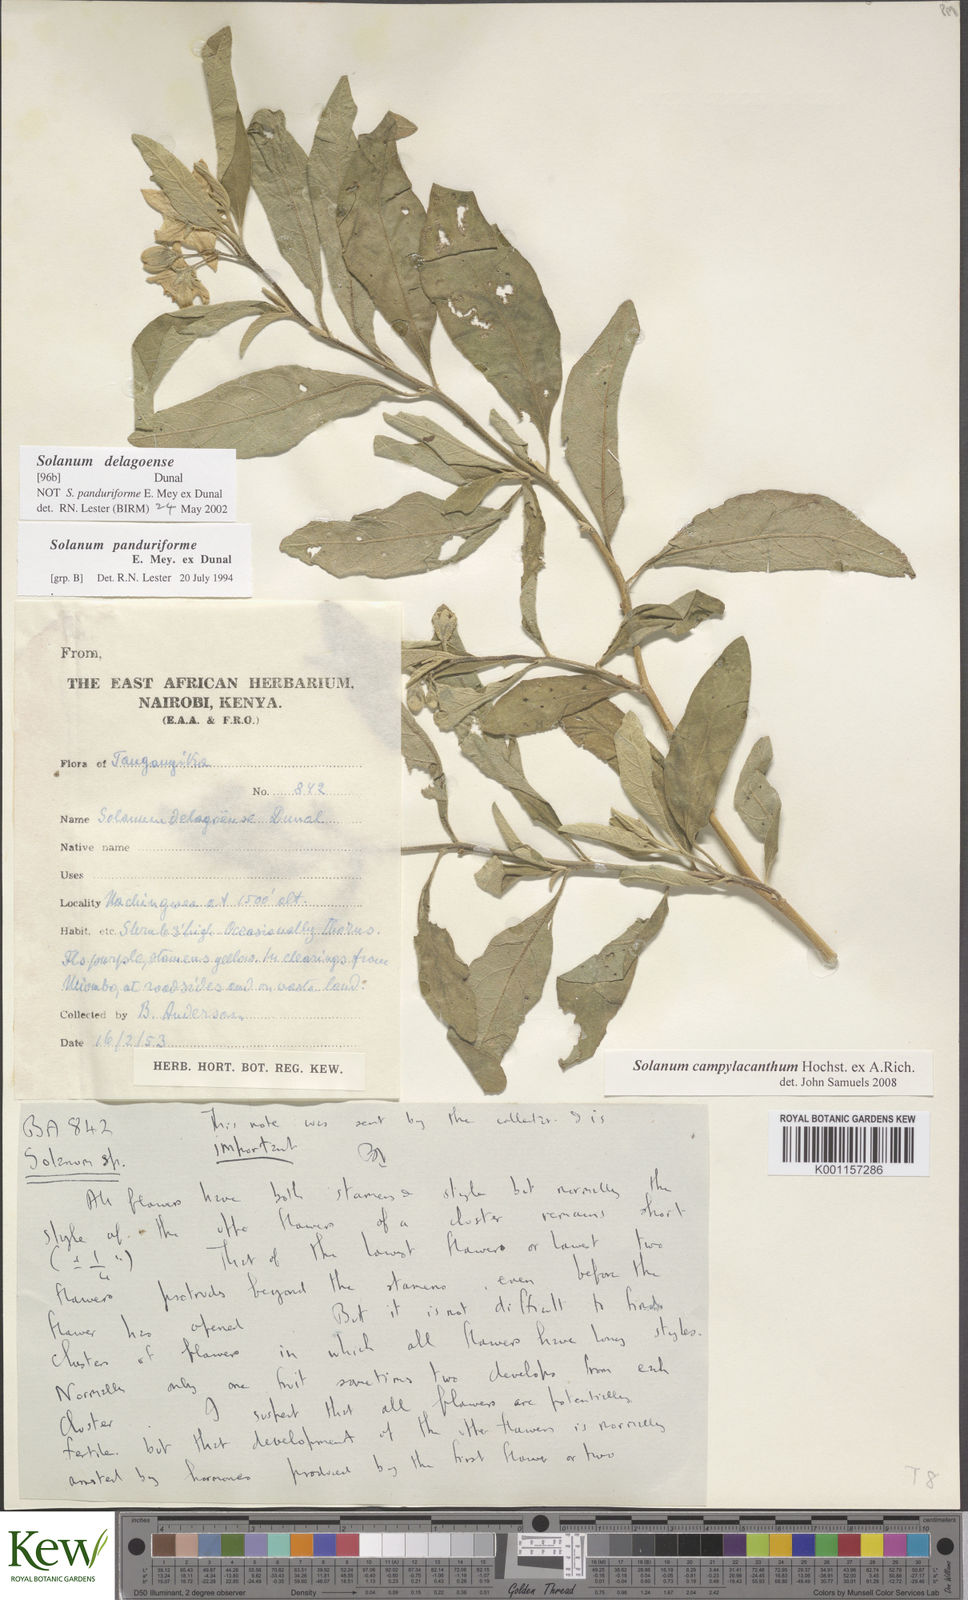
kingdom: Plantae
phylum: Tracheophyta
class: Magnoliopsida
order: Solanales
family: Solanaceae
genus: Solanum
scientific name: Solanum campylacanthum
